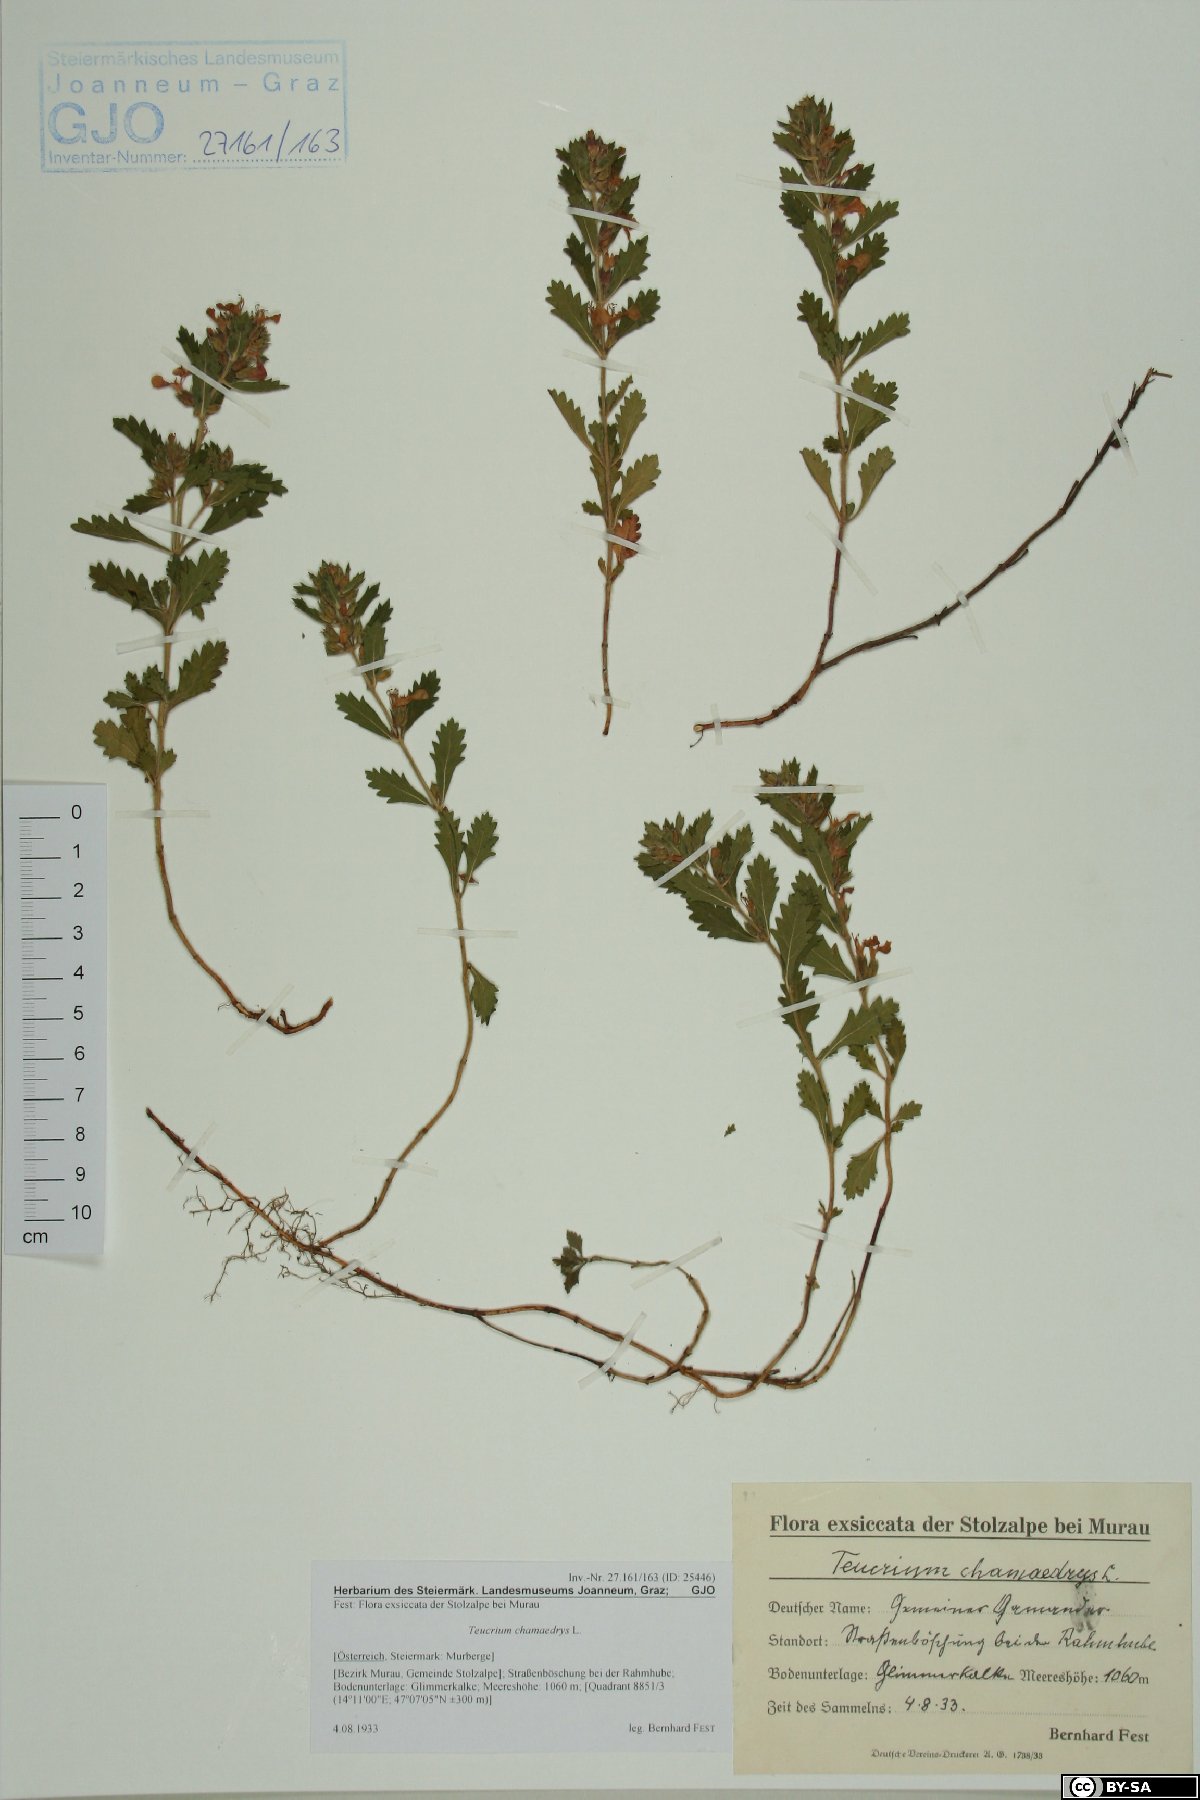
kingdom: Plantae
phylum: Tracheophyta
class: Magnoliopsida
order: Lamiales
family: Lamiaceae
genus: Teucrium
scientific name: Teucrium chamaedrys
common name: Wall germander
